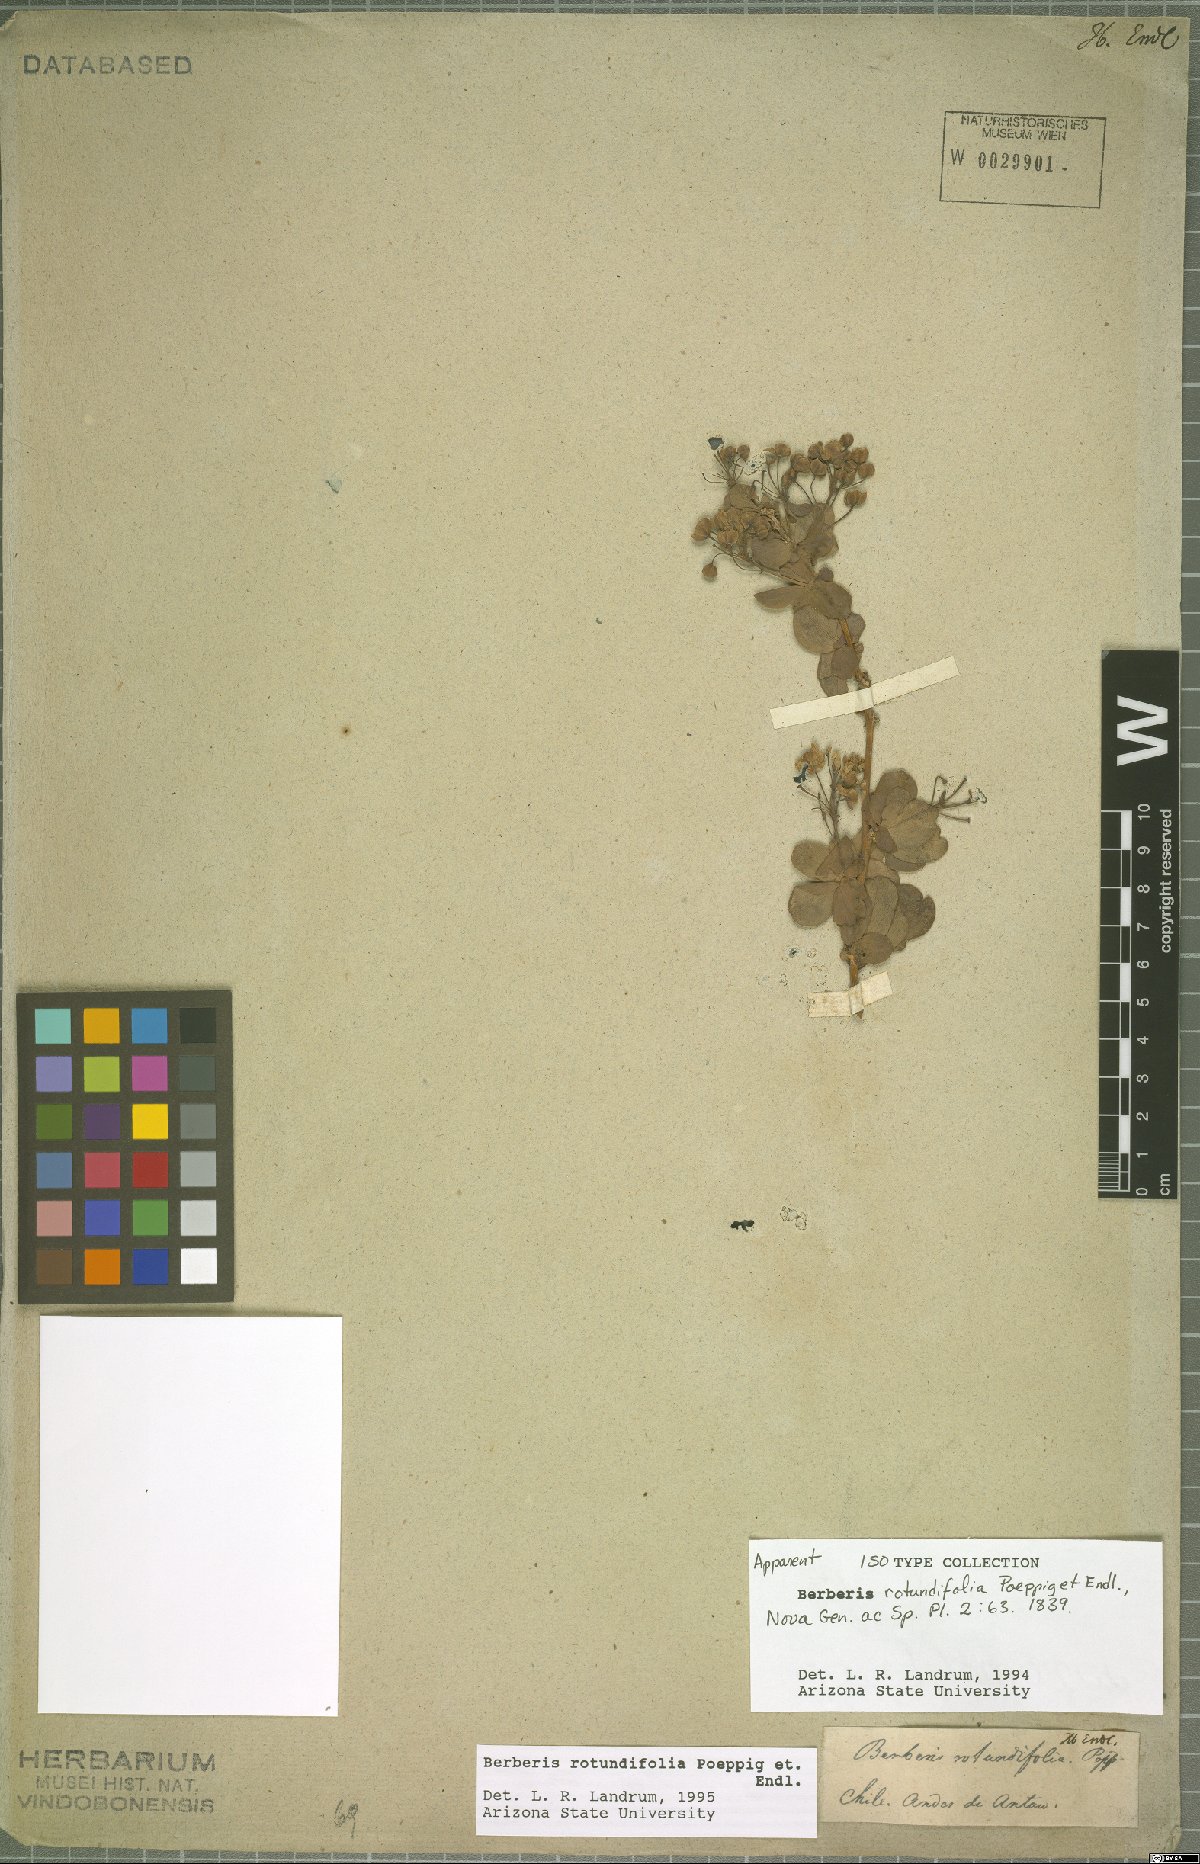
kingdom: Plantae
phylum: Tracheophyta
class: Magnoliopsida
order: Ranunculales
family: Berberidaceae
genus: Berberis
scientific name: Berberis rotundifolia
